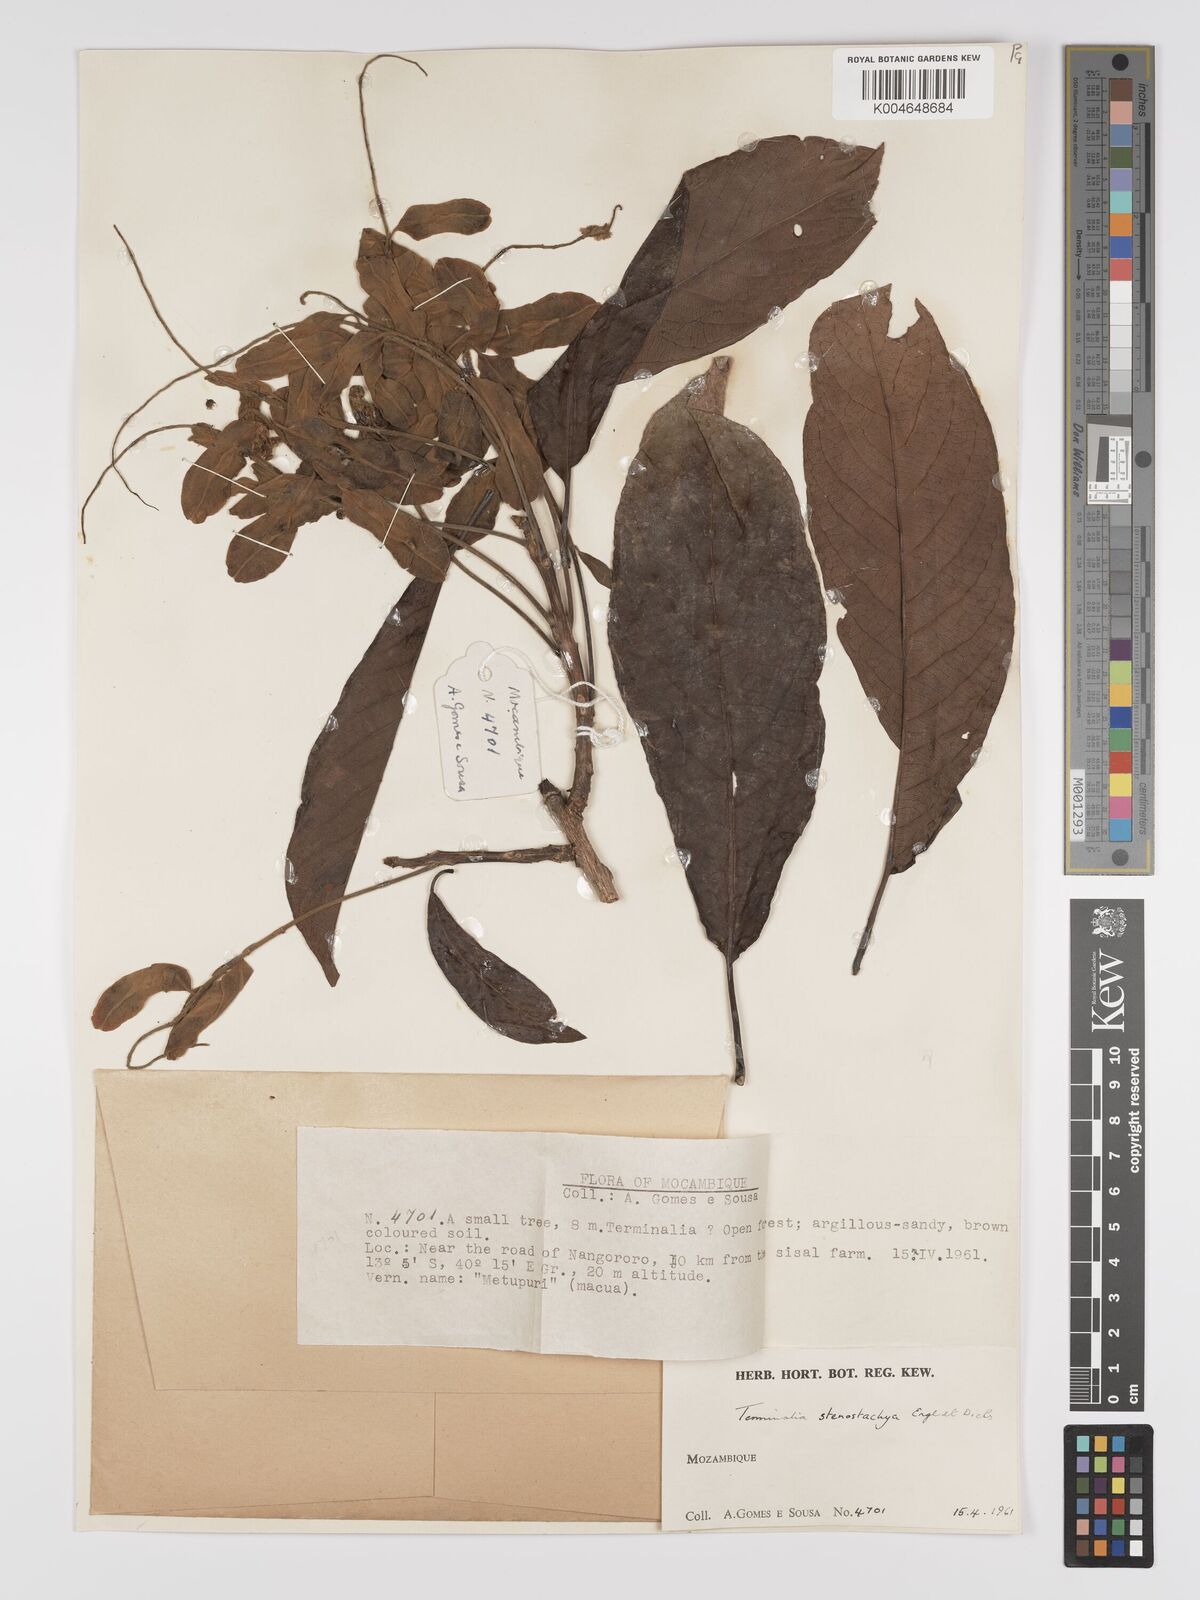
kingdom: Plantae
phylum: Tracheophyta
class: Magnoliopsida
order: Myrtales
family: Combretaceae
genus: Terminalia
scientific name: Terminalia stenostachya
